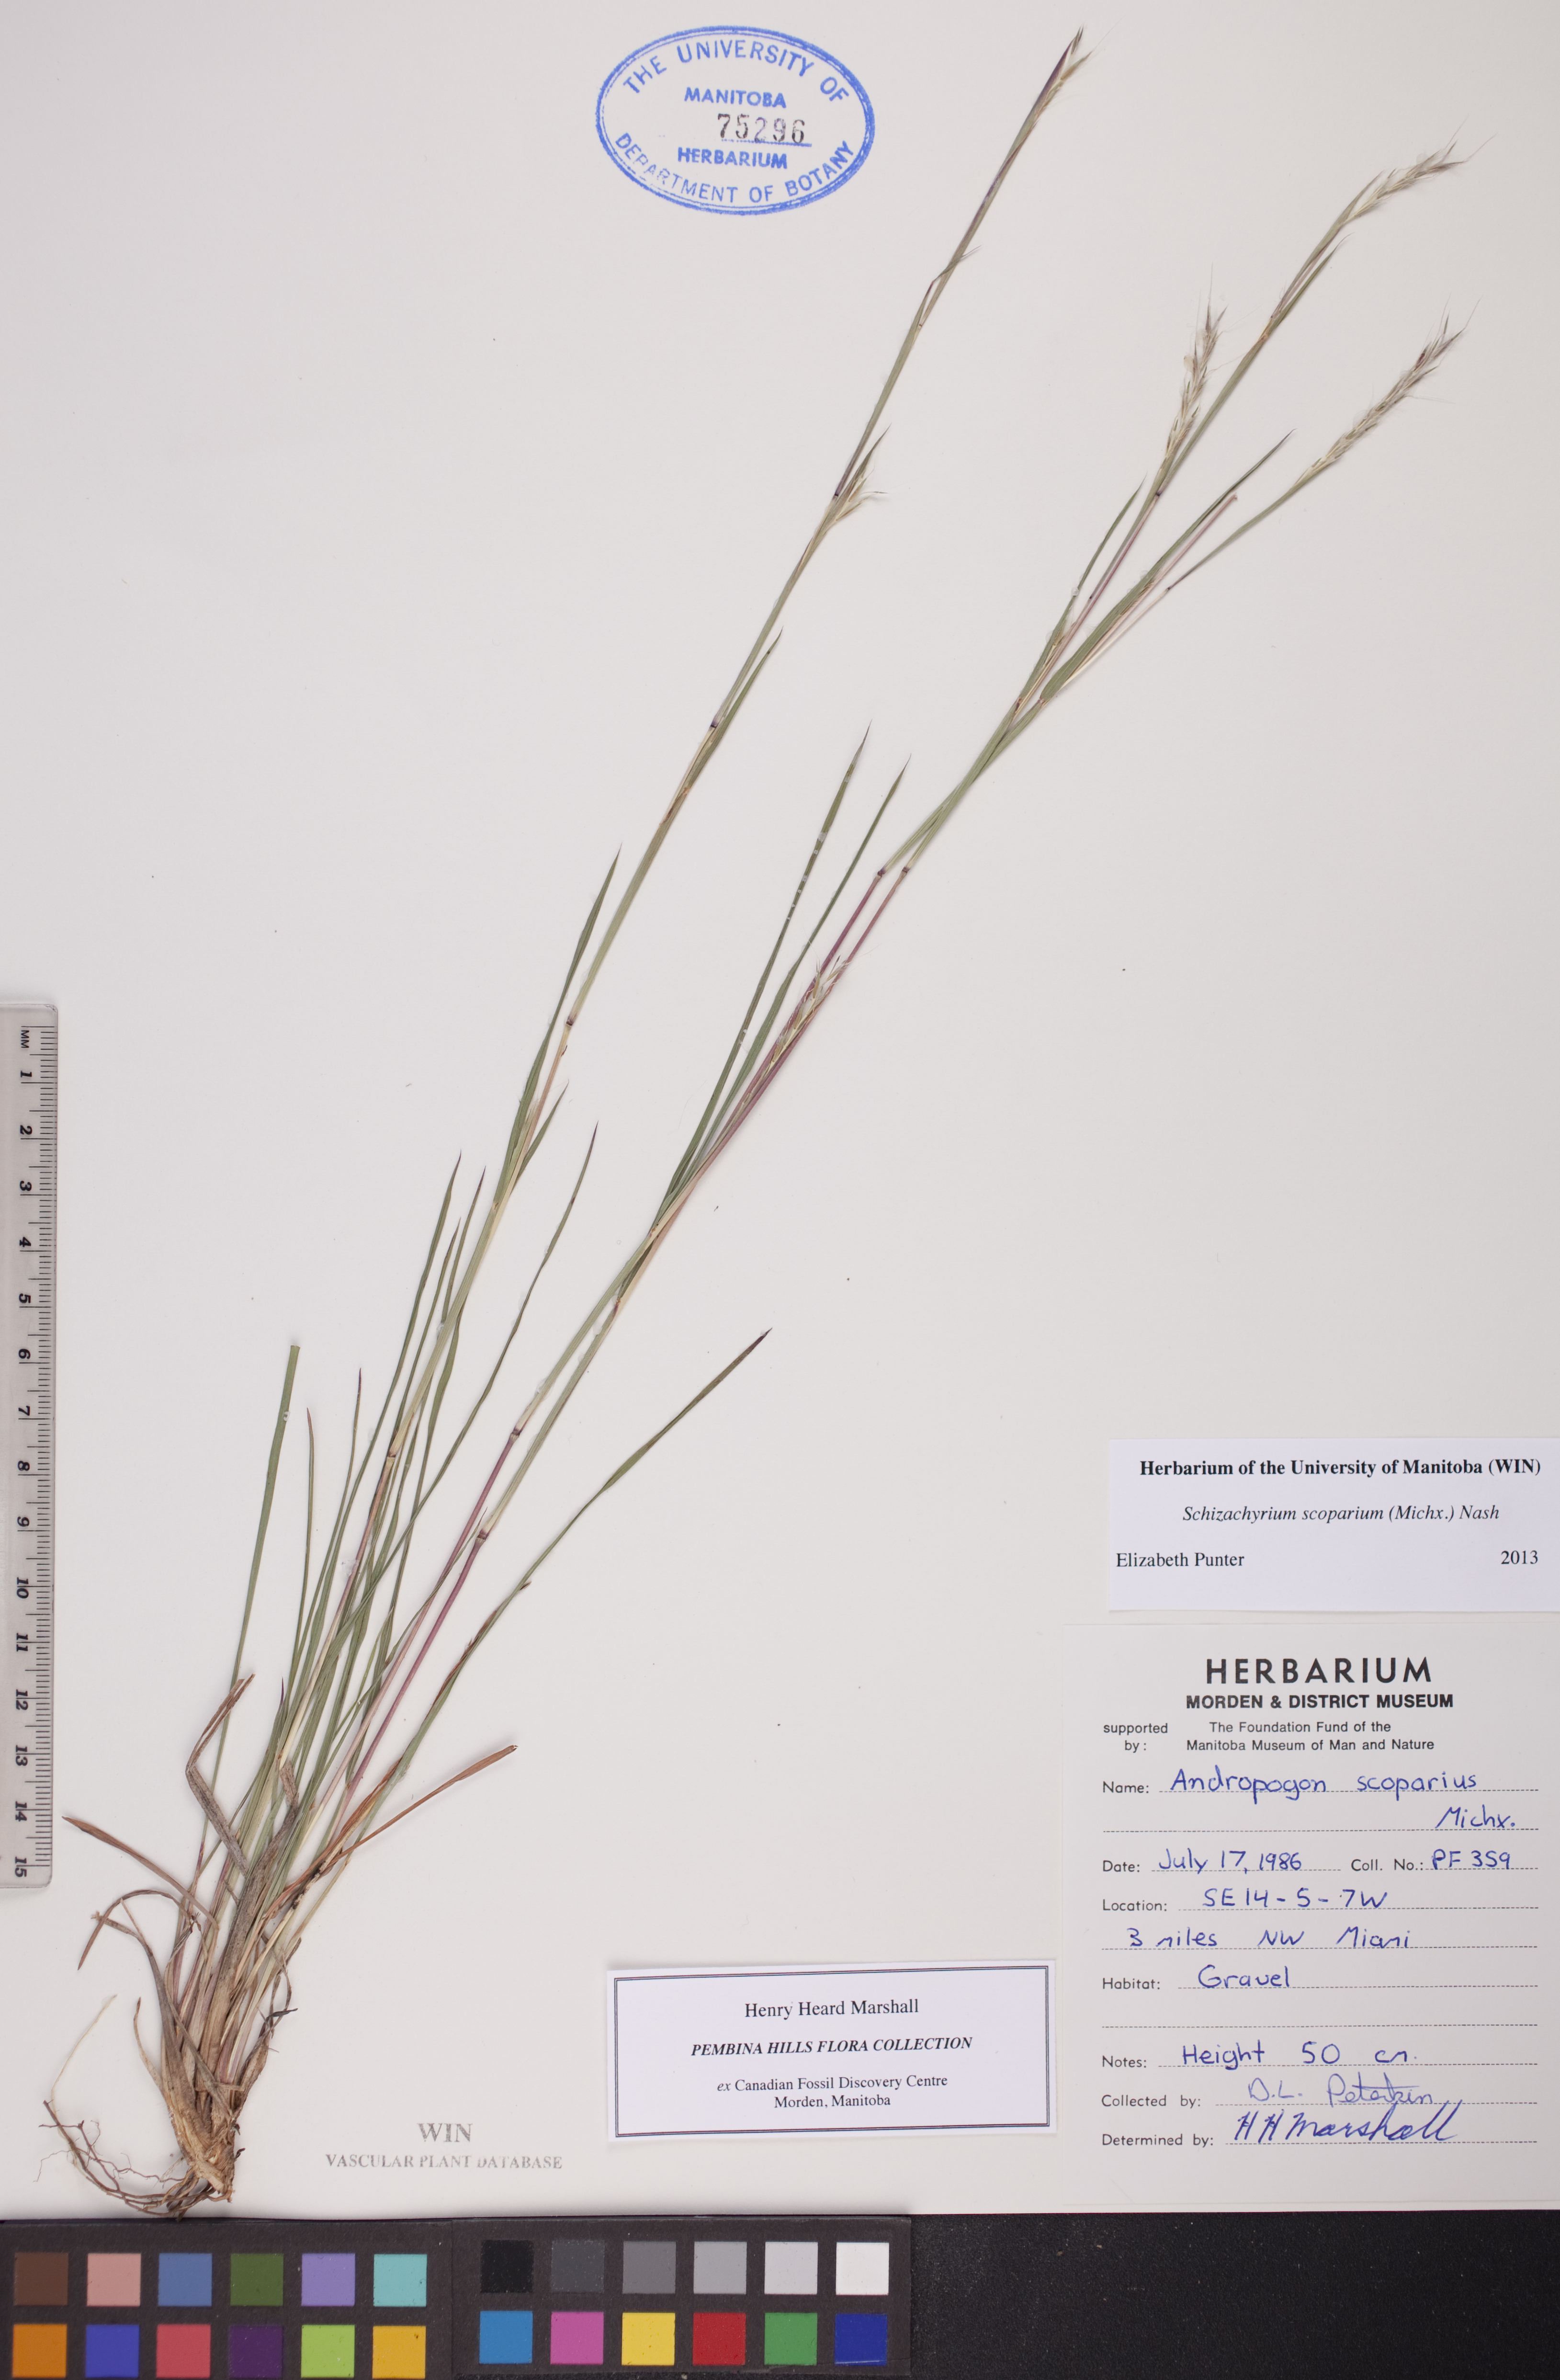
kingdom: Plantae
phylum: Tracheophyta
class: Liliopsida
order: Poales
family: Poaceae
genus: Schizachyrium
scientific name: Schizachyrium scoparium
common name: Little bluestem
